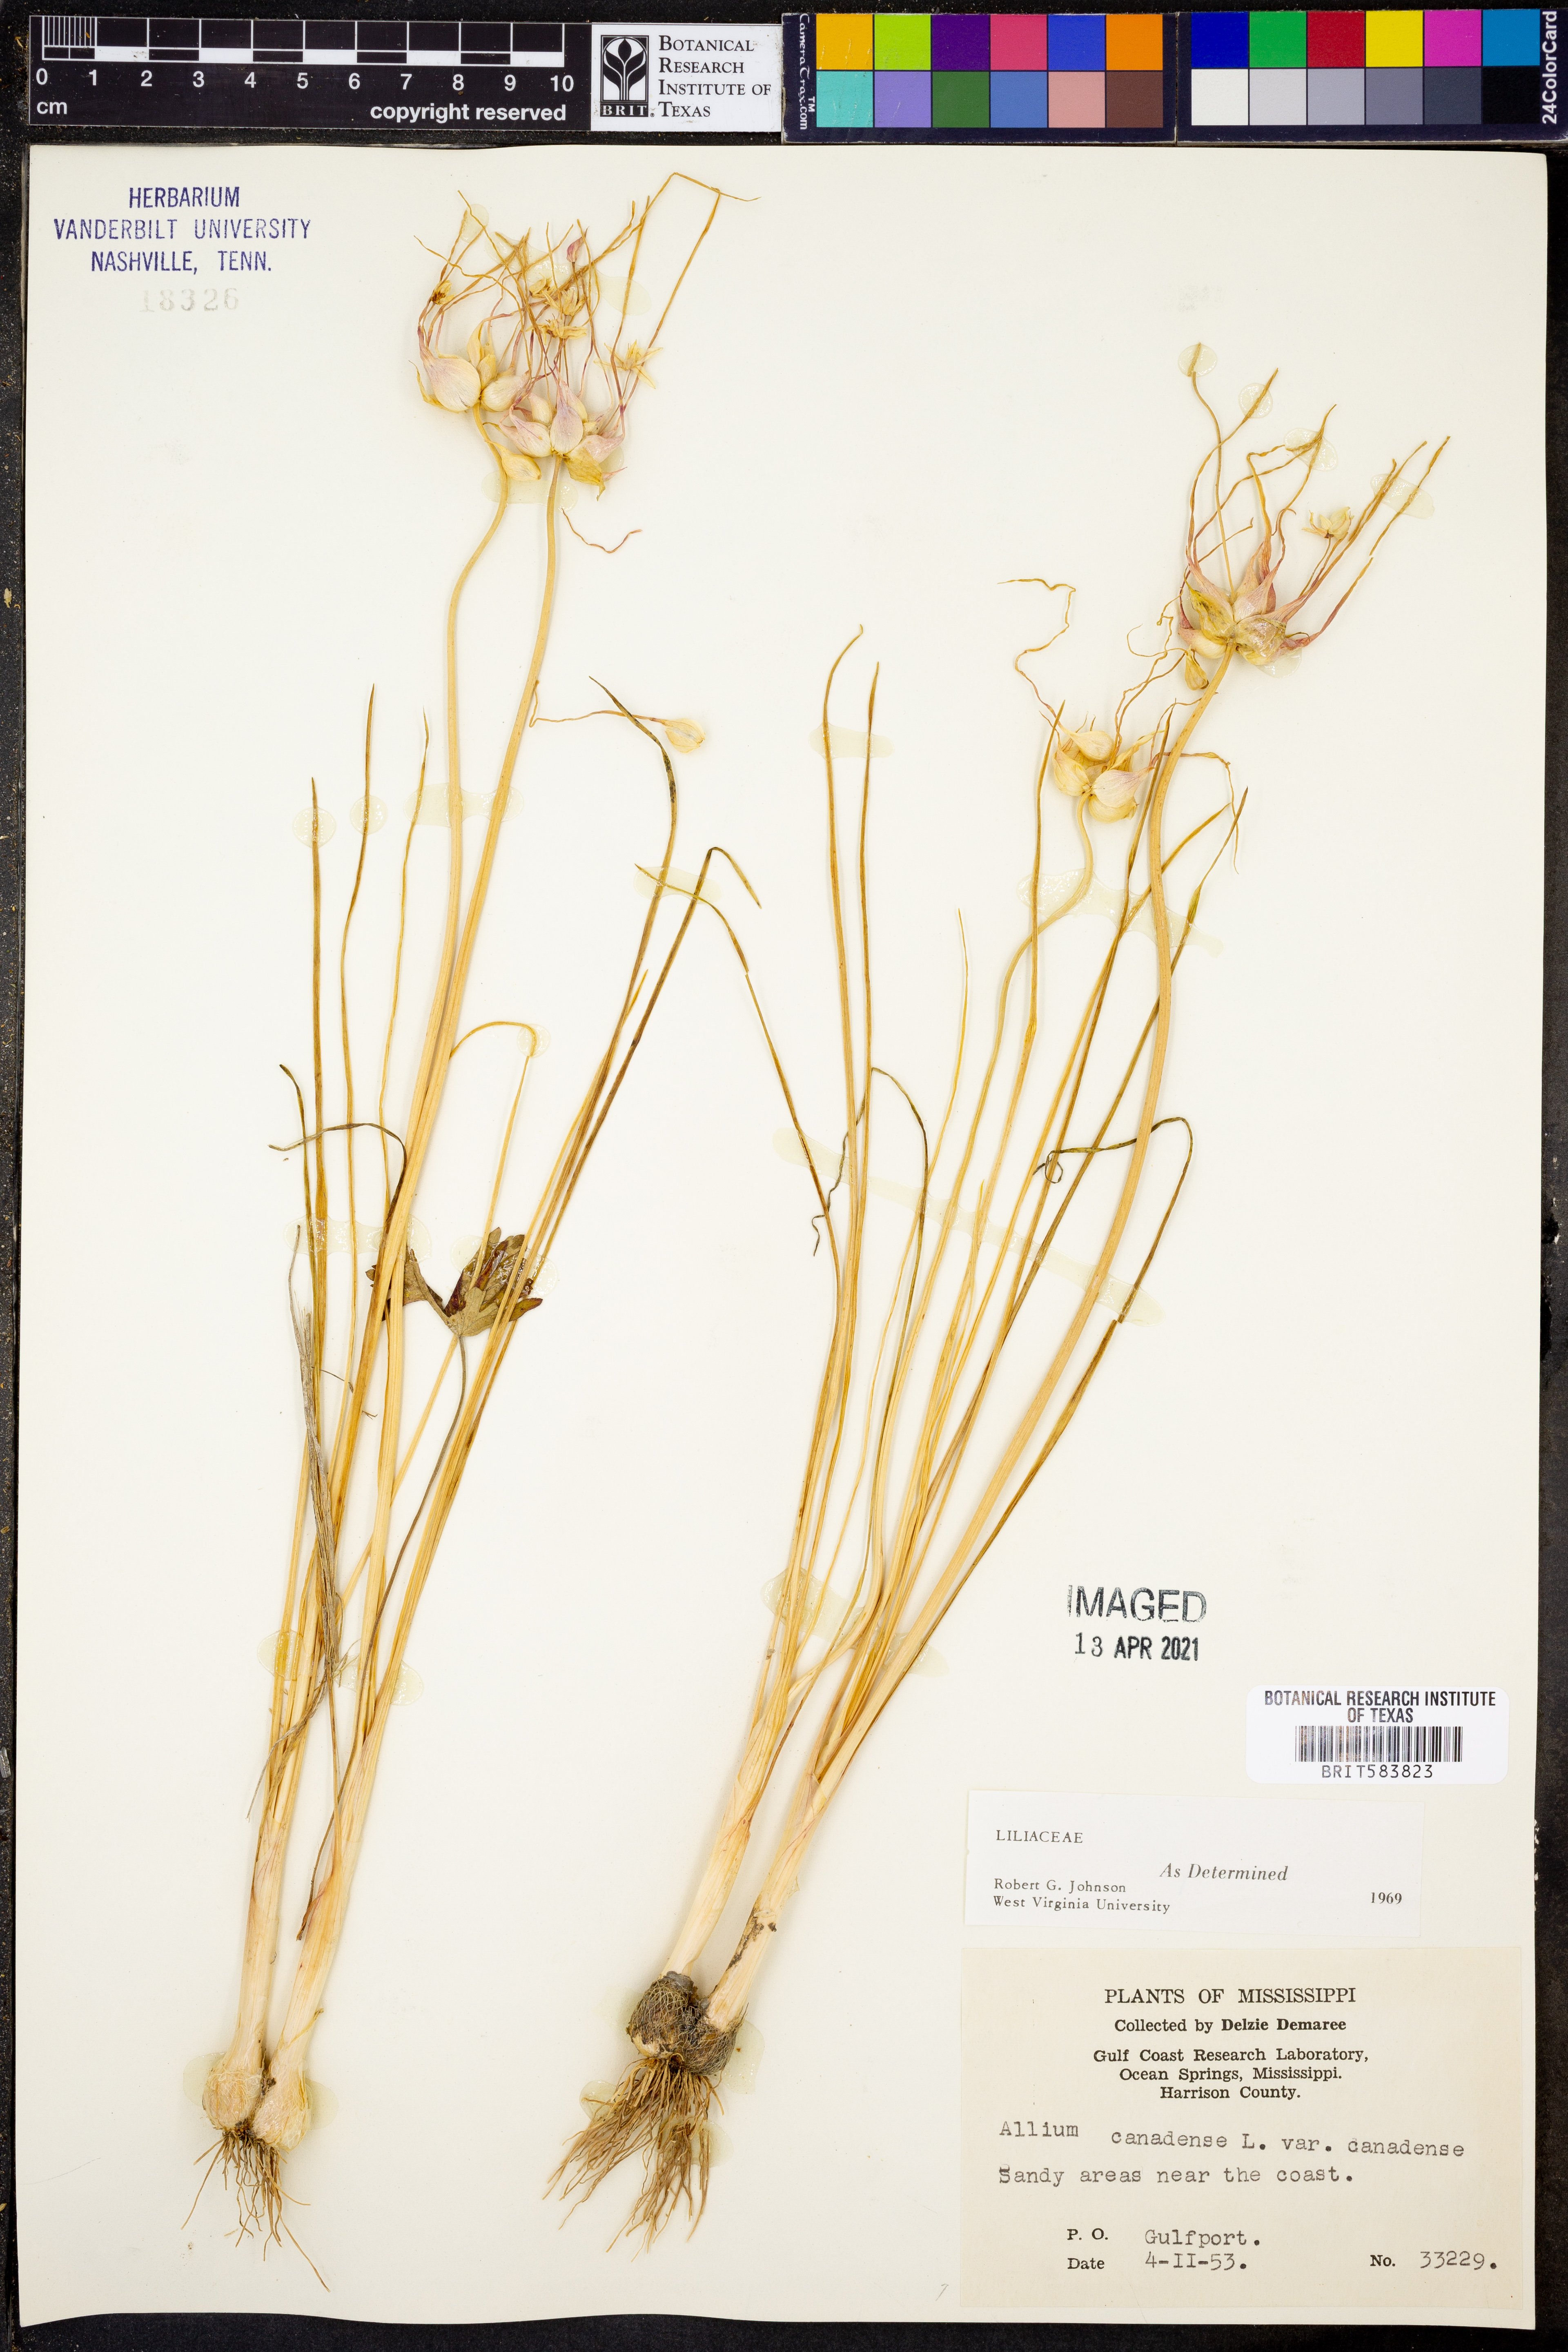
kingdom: Plantae
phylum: Tracheophyta
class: Liliopsida
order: Asparagales
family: Amaryllidaceae
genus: Allium
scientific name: Allium canadense
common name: Meadow garlic
